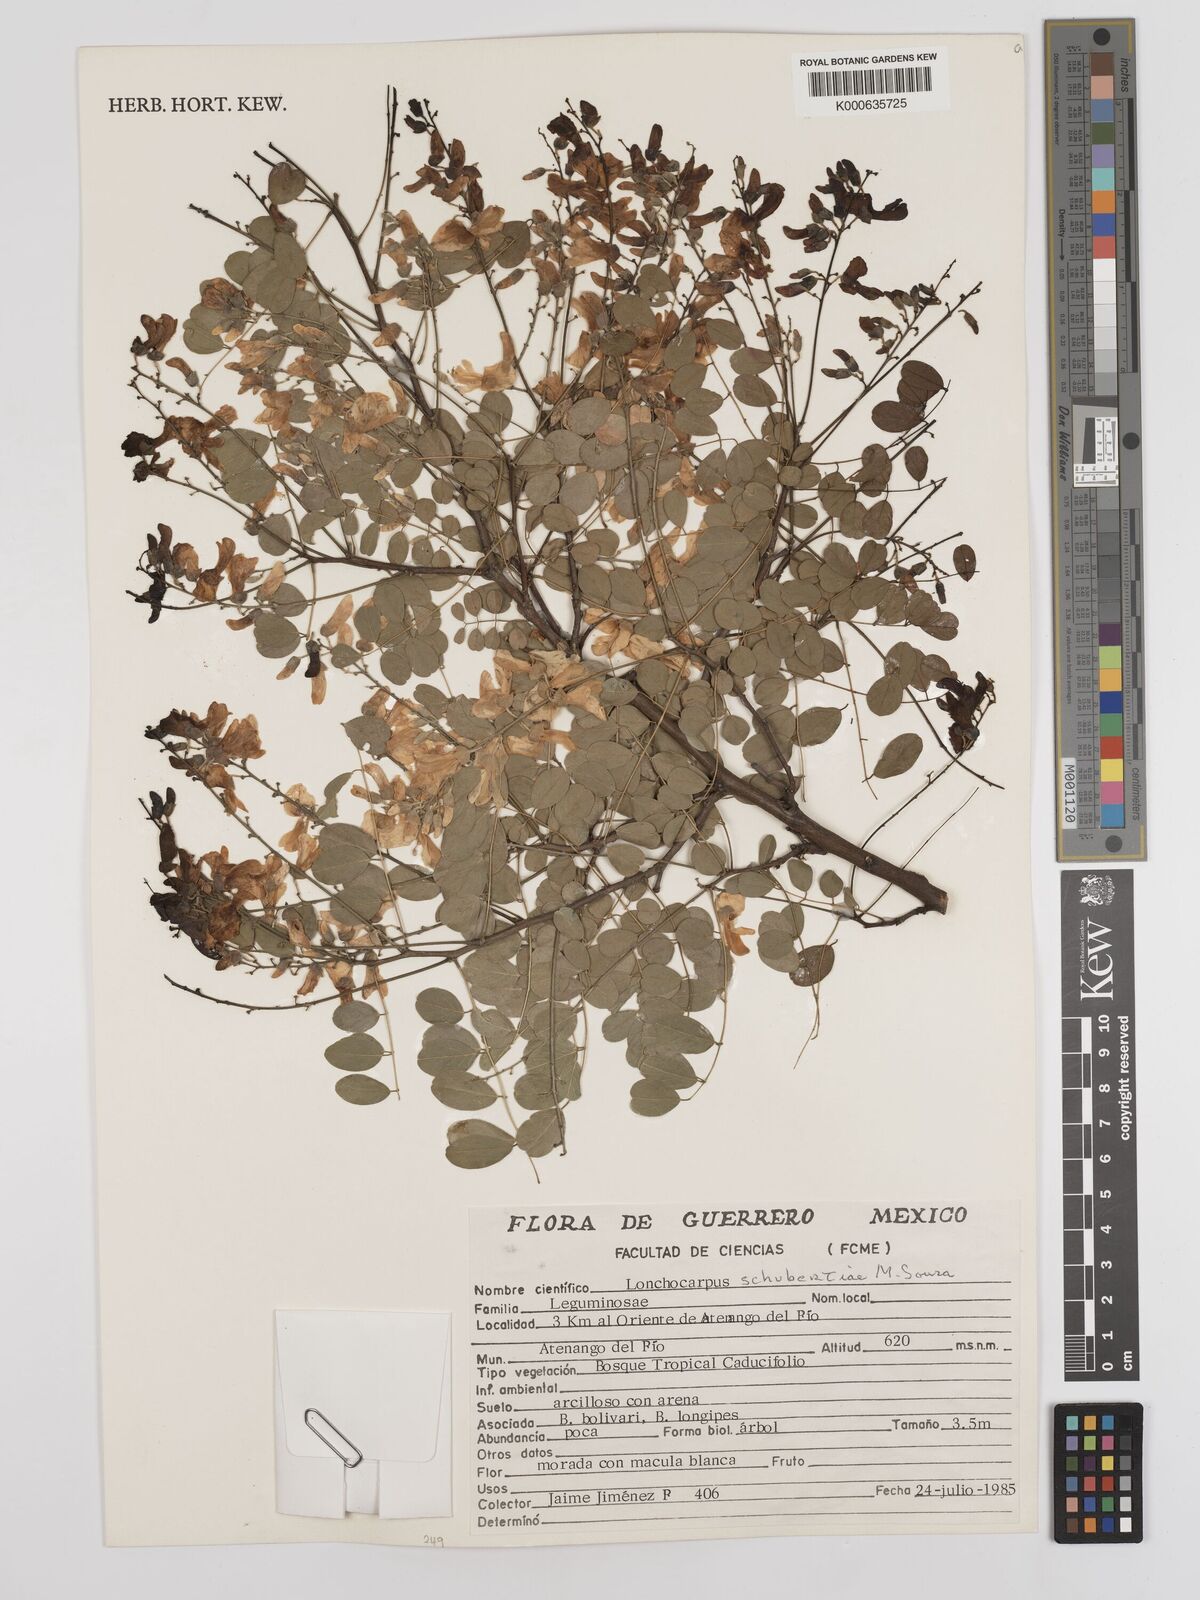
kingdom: Plantae
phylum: Tracheophyta
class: Magnoliopsida
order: Fabales
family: Fabaceae
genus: Lonchocarpus
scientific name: Lonchocarpus schubertiae
